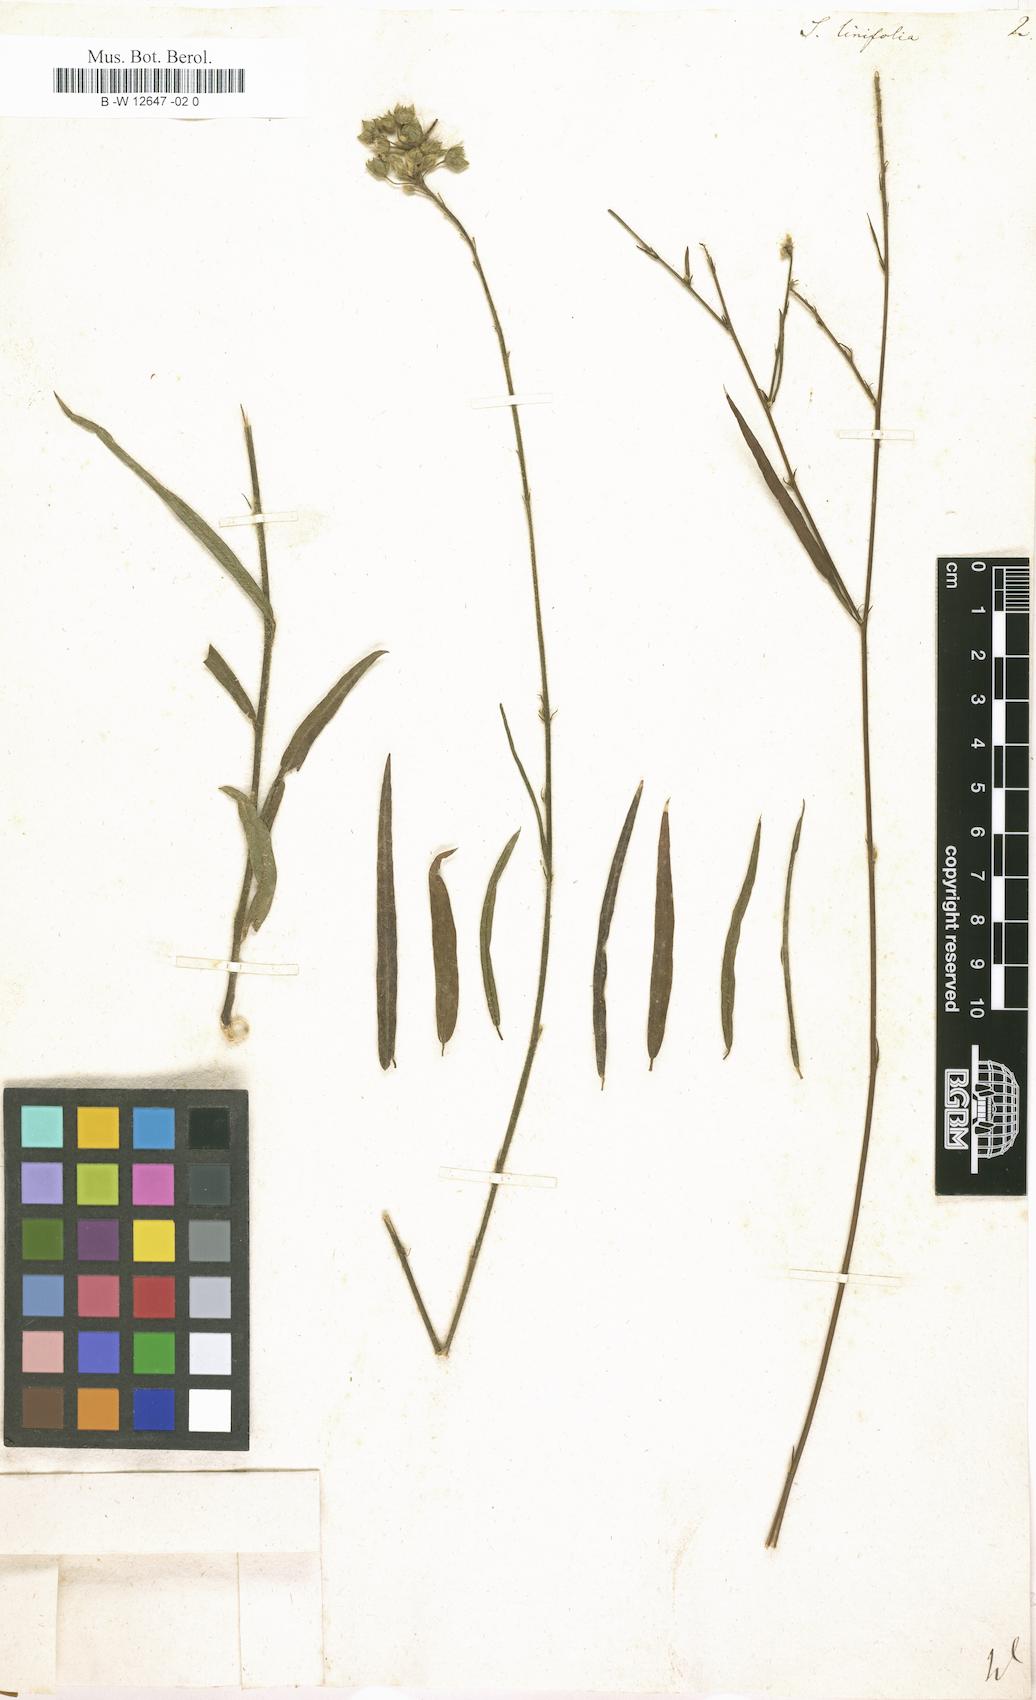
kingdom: Plantae
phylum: Tracheophyta
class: Magnoliopsida
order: Malvales
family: Malvaceae
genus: Sida
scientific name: Sida linifolia
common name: Flaxleaf fanpetals
